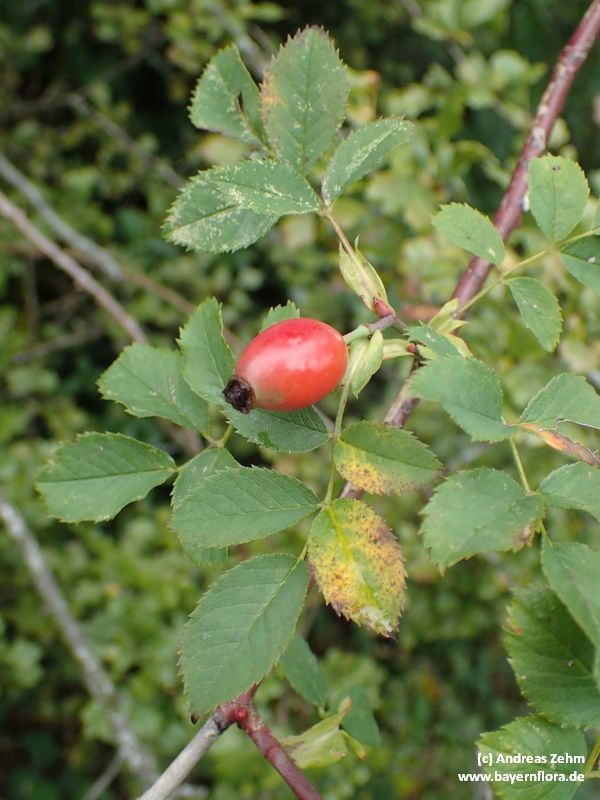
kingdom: Plantae
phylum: Tracheophyta
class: Magnoliopsida
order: Rosales
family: Rosaceae
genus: Rosa
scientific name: Rosa subcanina
